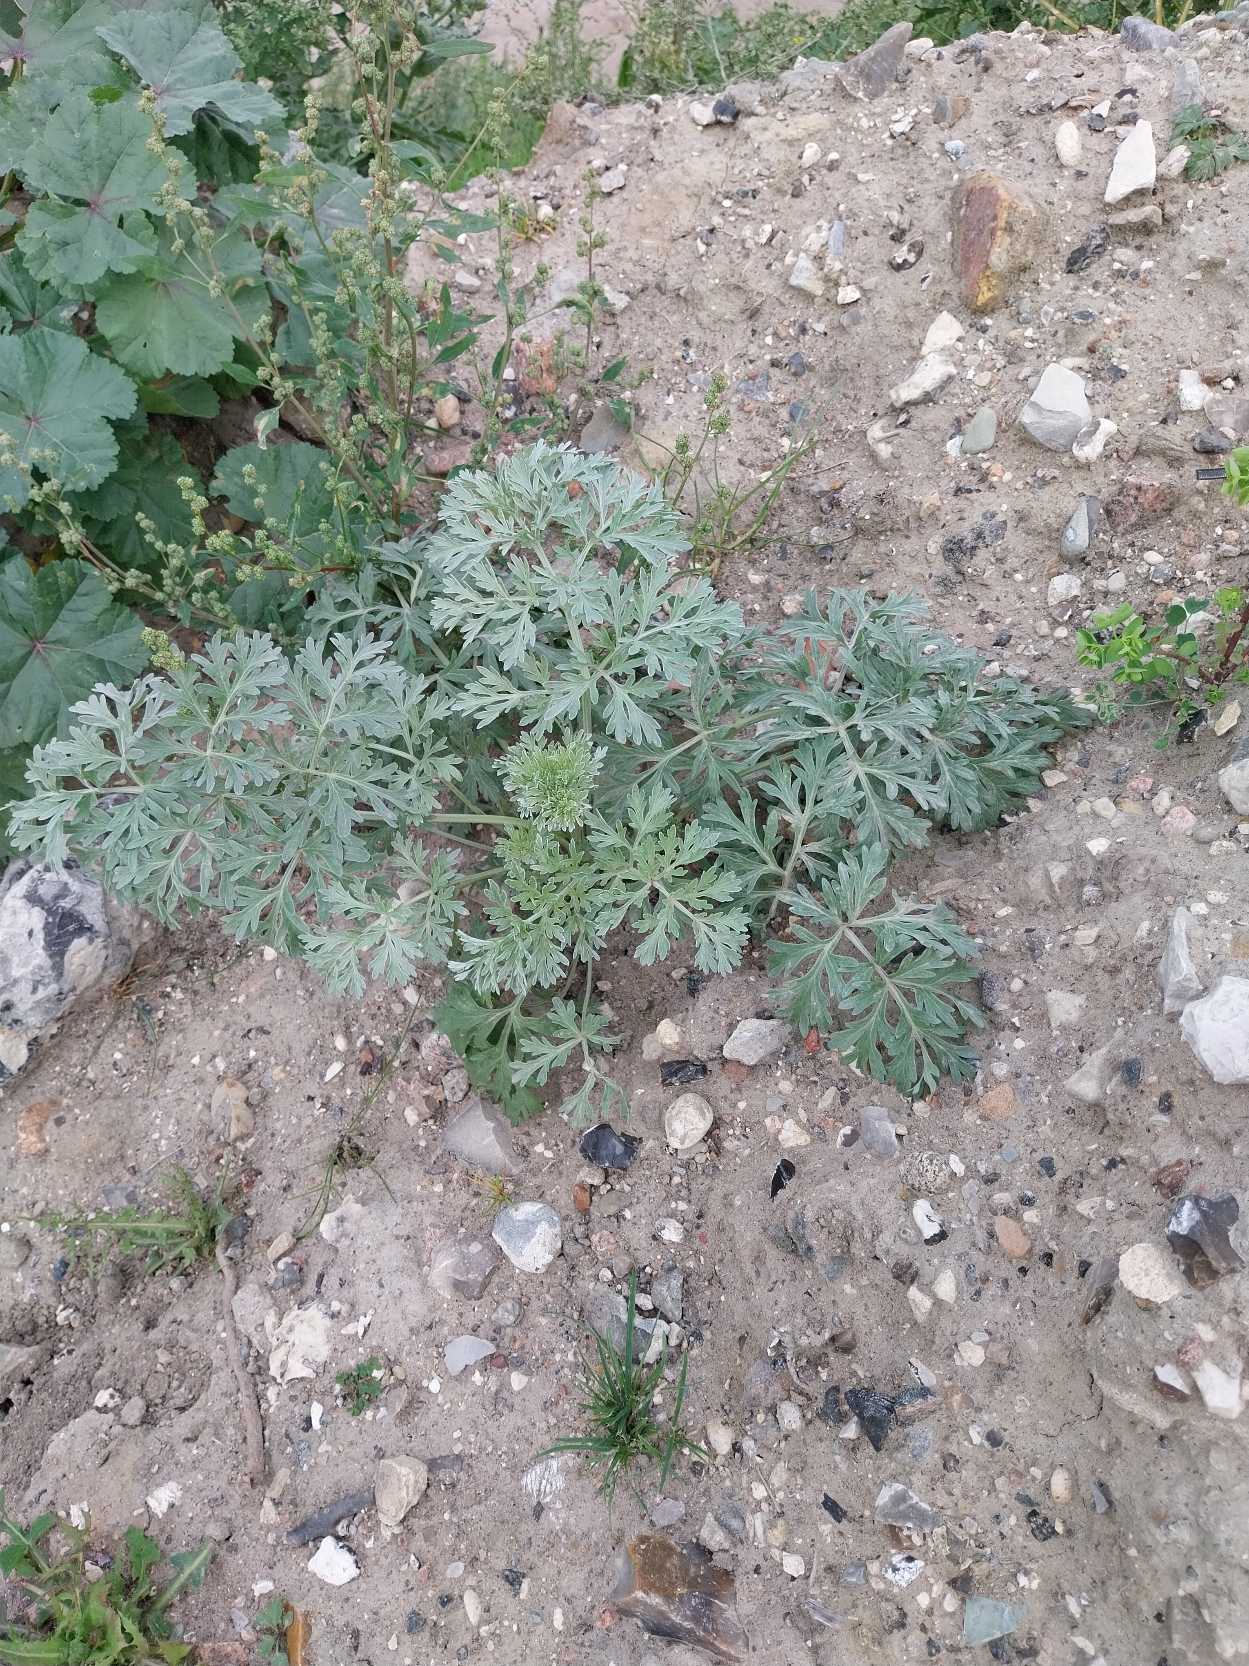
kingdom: Plantae
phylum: Tracheophyta
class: Magnoliopsida
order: Asterales
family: Asteraceae
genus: Artemisia
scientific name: Artemisia absinthium
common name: Havemalurt
